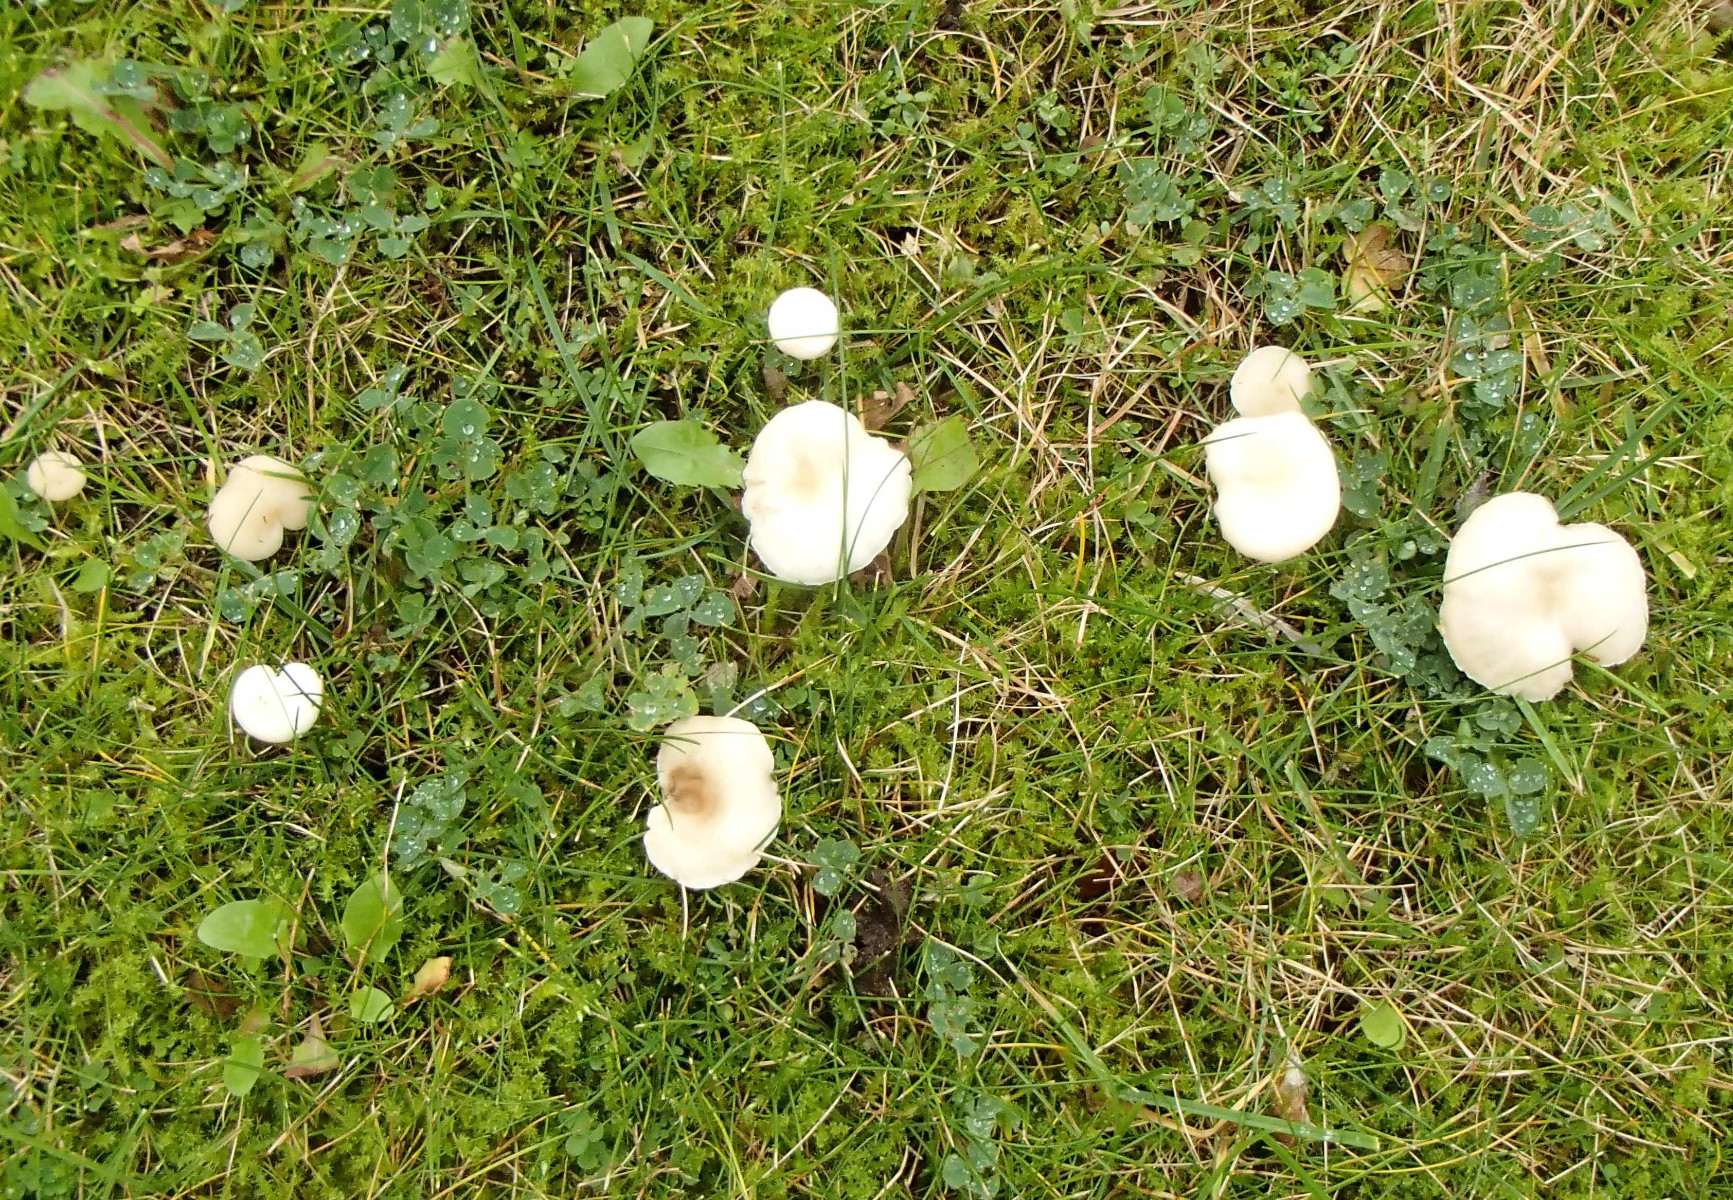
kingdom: Fungi
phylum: Basidiomycota
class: Agaricomycetes
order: Agaricales
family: Tricholomataceae
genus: Clitocybe
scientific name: Clitocybe
